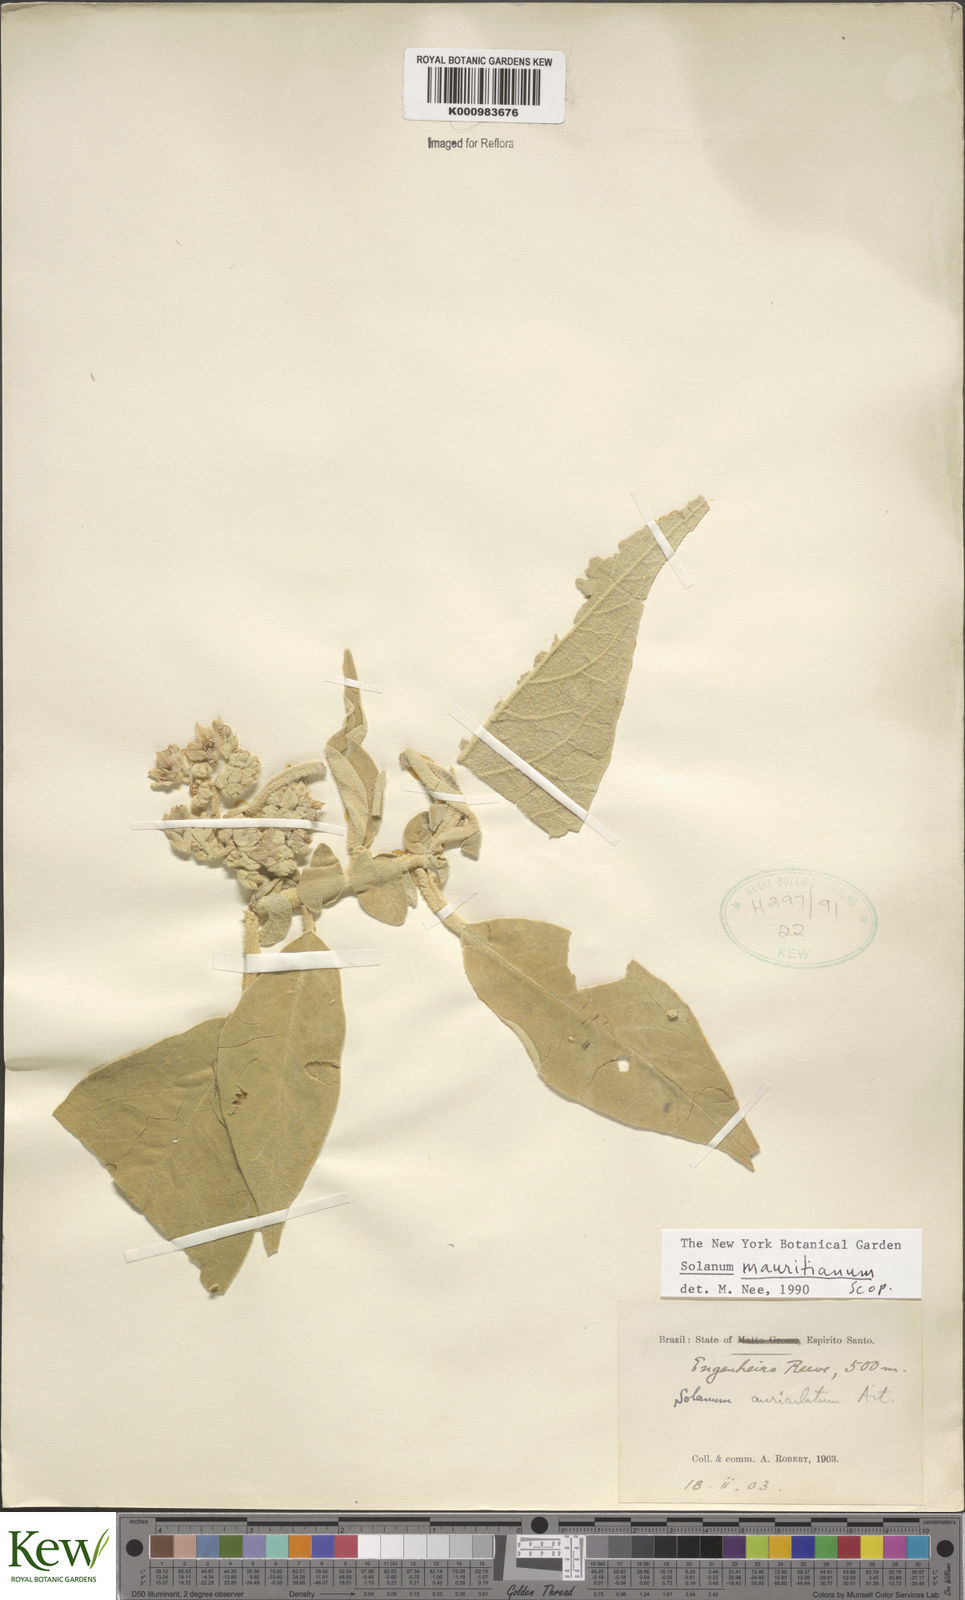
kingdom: Plantae
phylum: Tracheophyta
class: Magnoliopsida
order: Solanales
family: Solanaceae
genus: Solanum
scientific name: Solanum mauritianum
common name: Earleaf nightshade
